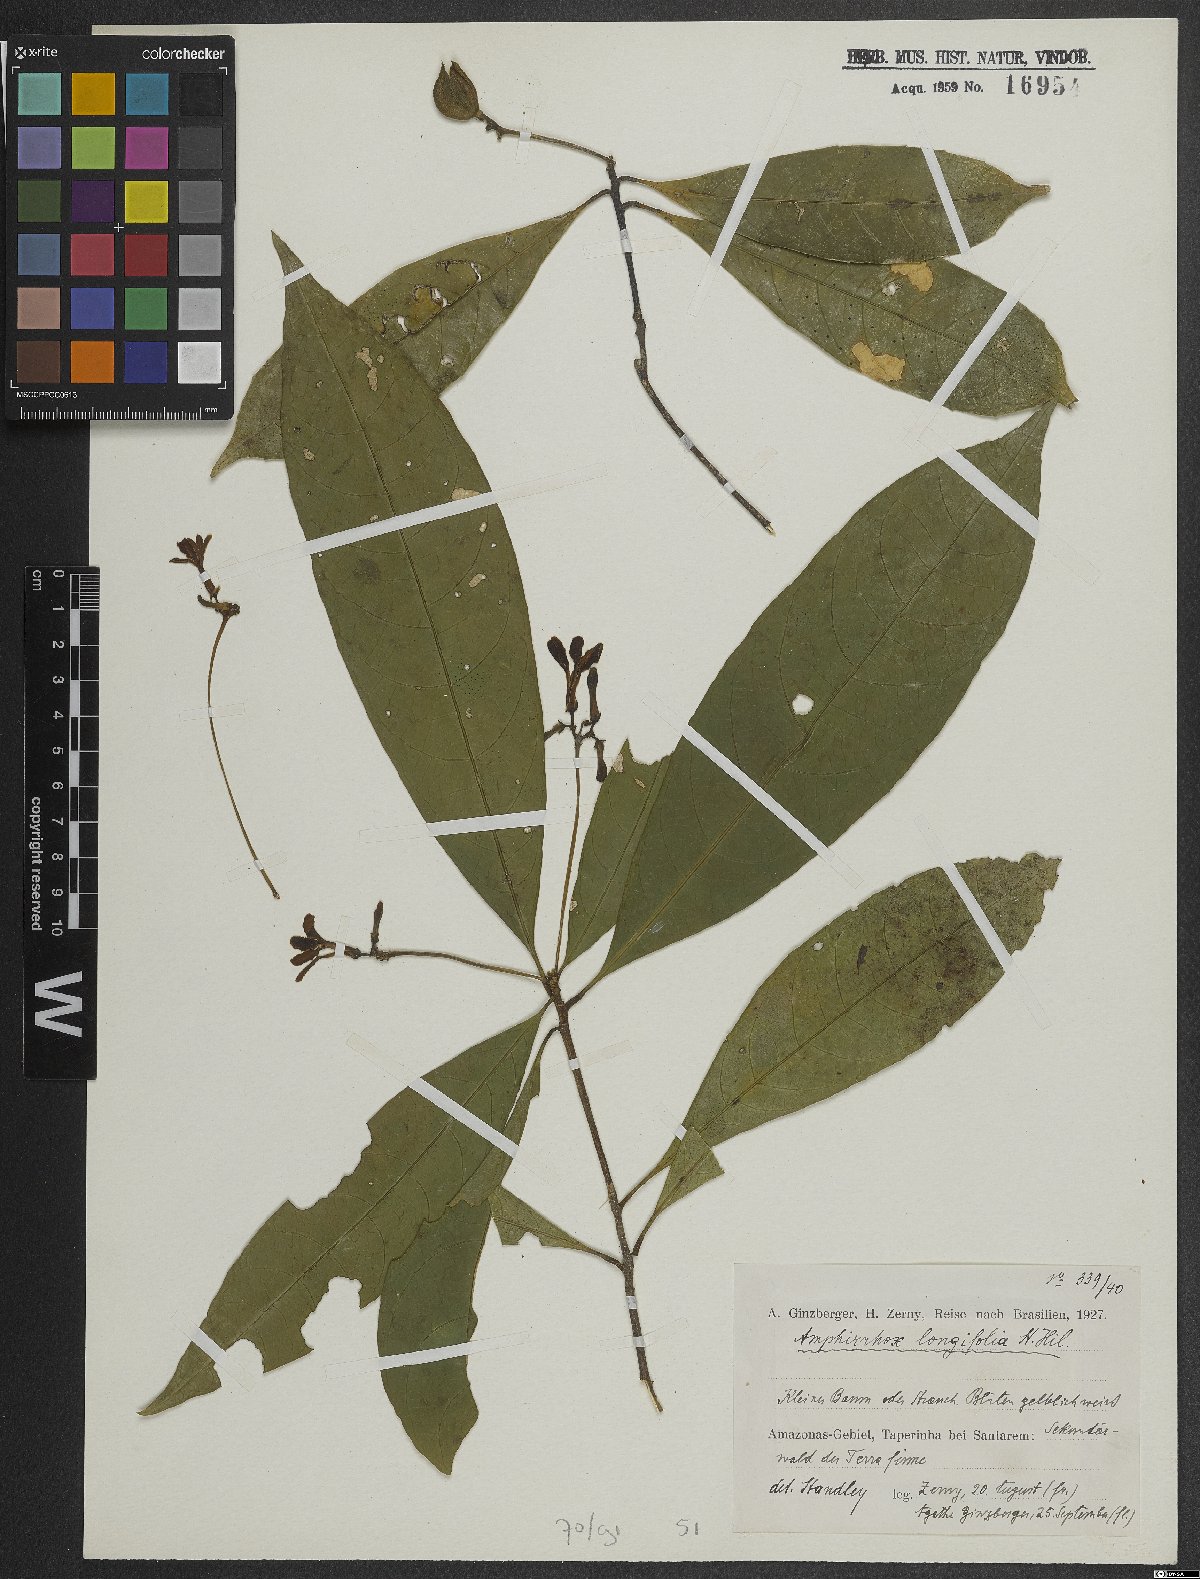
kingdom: Plantae
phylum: Tracheophyta
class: Magnoliopsida
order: Malpighiales
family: Violaceae
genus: Amphirrhox
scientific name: Amphirrhox longifolia
